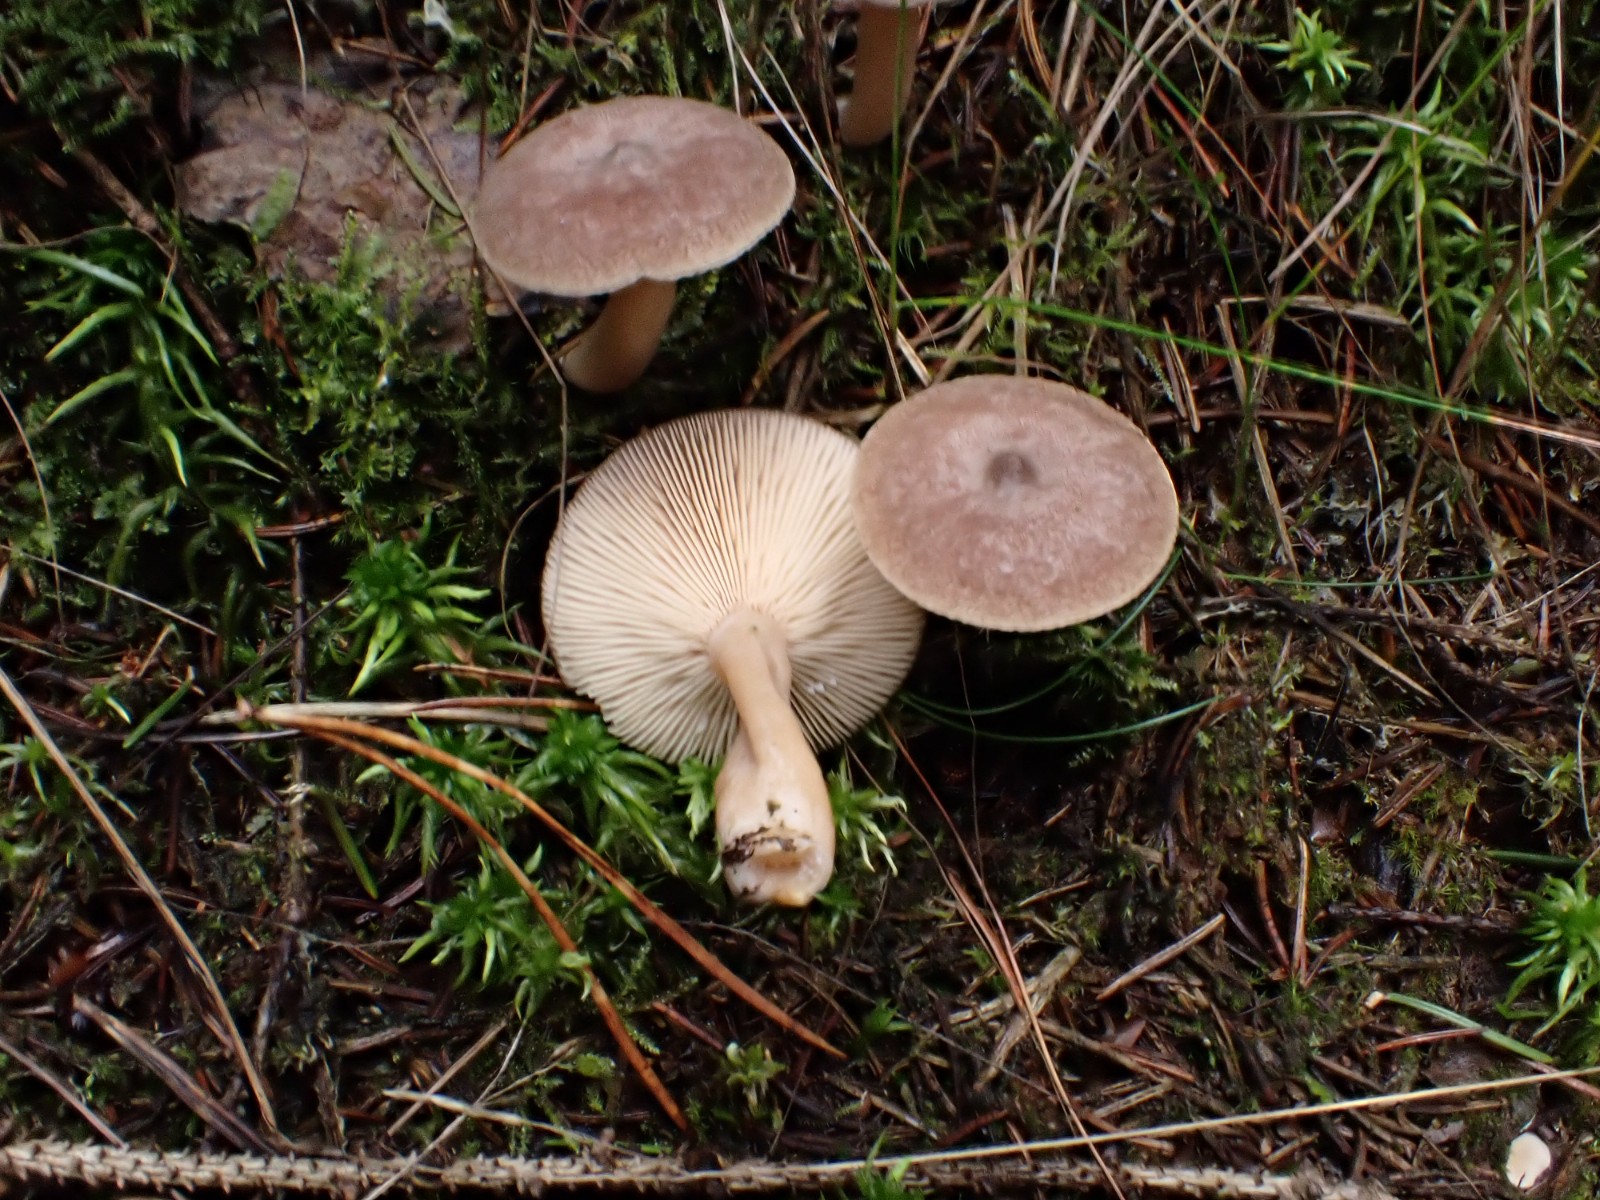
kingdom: Fungi
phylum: Basidiomycota
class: Agaricomycetes
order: Russulales
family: Russulaceae
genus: Lactarius
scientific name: Lactarius glyciosmus
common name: kokos-mælkehat
